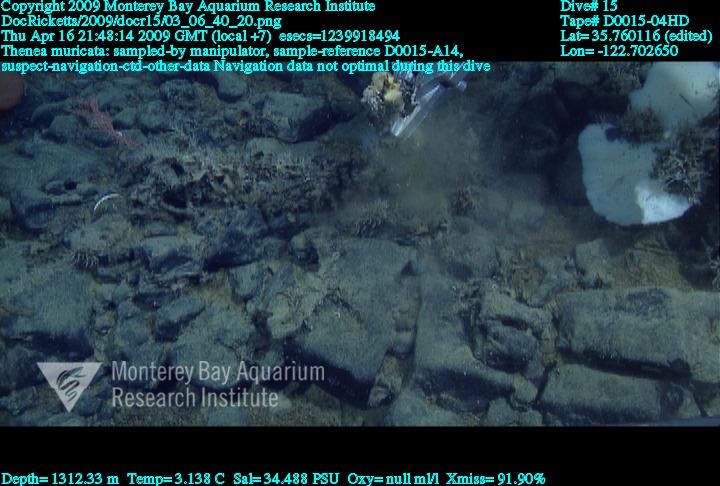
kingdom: Animalia
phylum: Porifera
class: Demospongiae
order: Tetractinellida
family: Theneidae
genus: Thenea
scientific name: Thenea muricata
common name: Mulberry horny sponge
